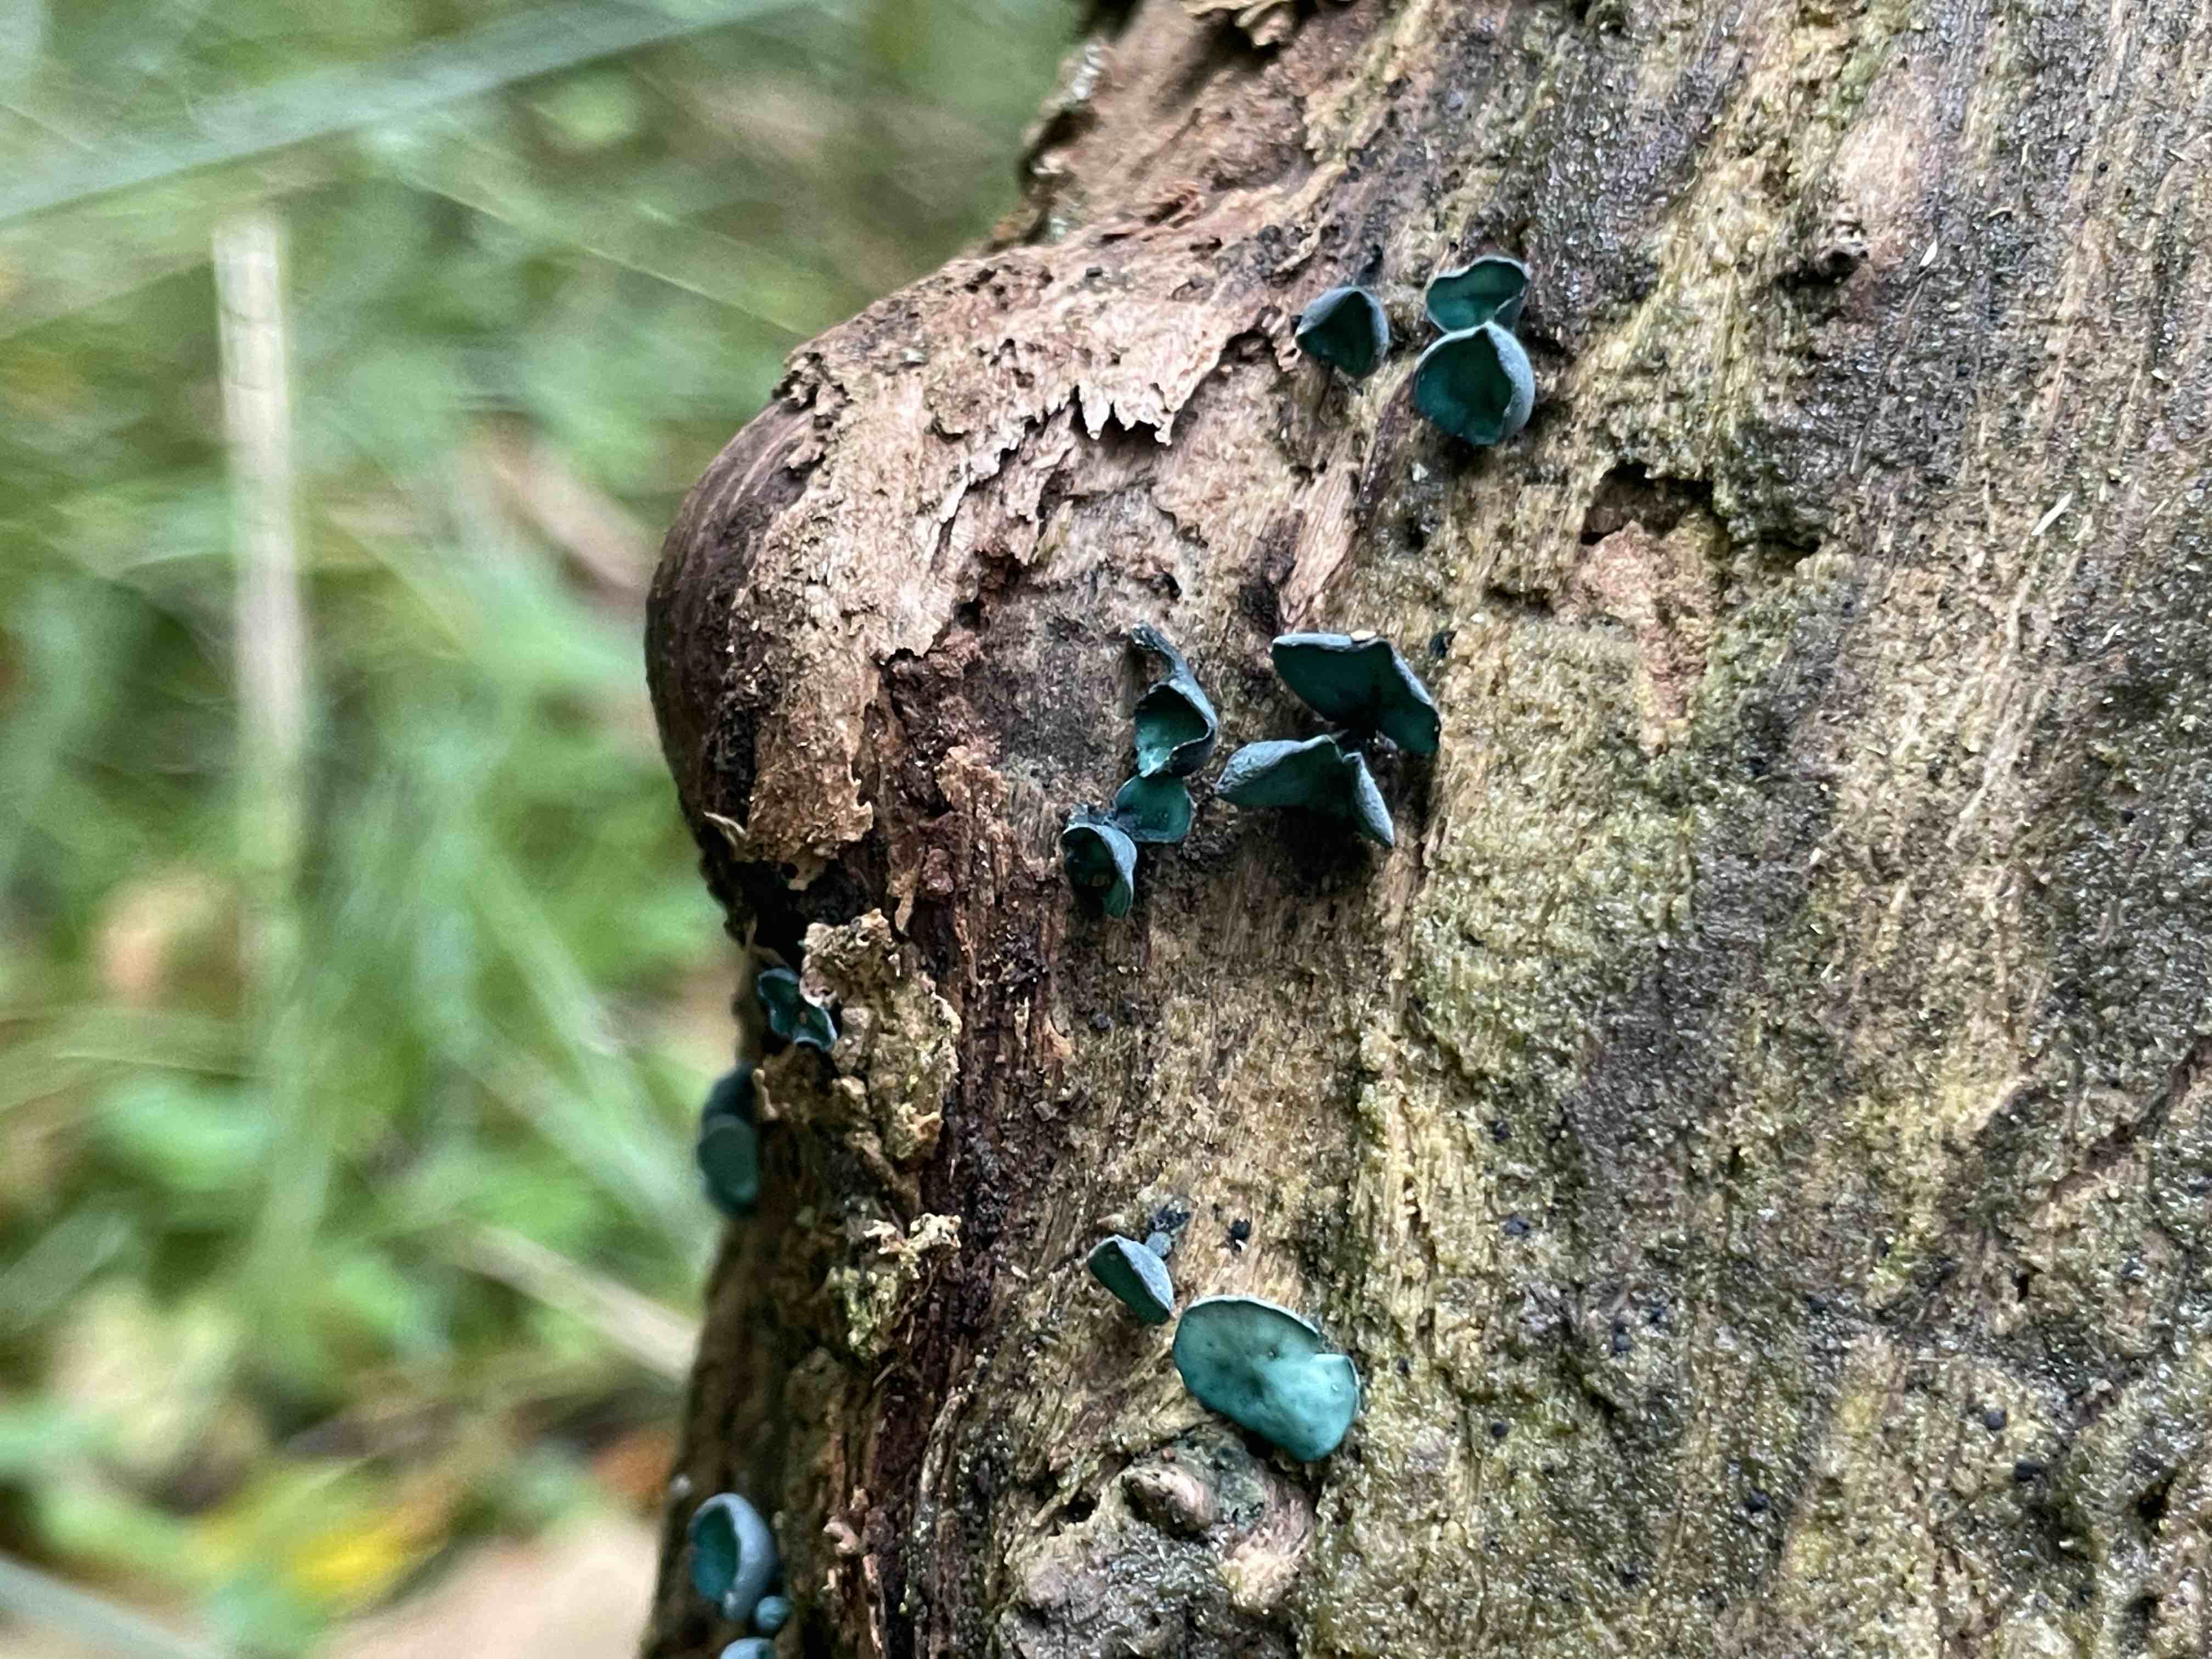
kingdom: Fungi
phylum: Ascomycota
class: Leotiomycetes
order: Helotiales
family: Chlorociboriaceae
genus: Chlorociboria
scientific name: Chlorociboria aeruginascens
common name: almindelig grønskive
